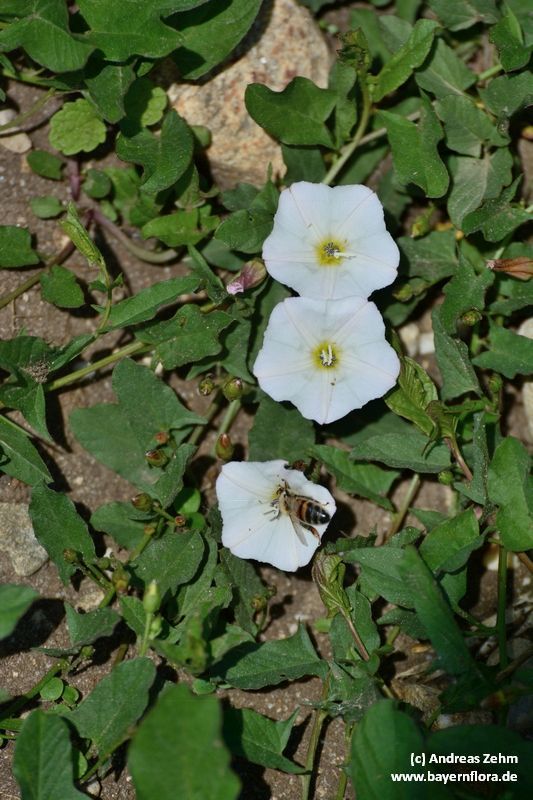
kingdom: Plantae
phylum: Tracheophyta
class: Magnoliopsida
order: Solanales
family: Convolvulaceae
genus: Convolvulus
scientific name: Convolvulus arvensis
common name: Field bindweed
